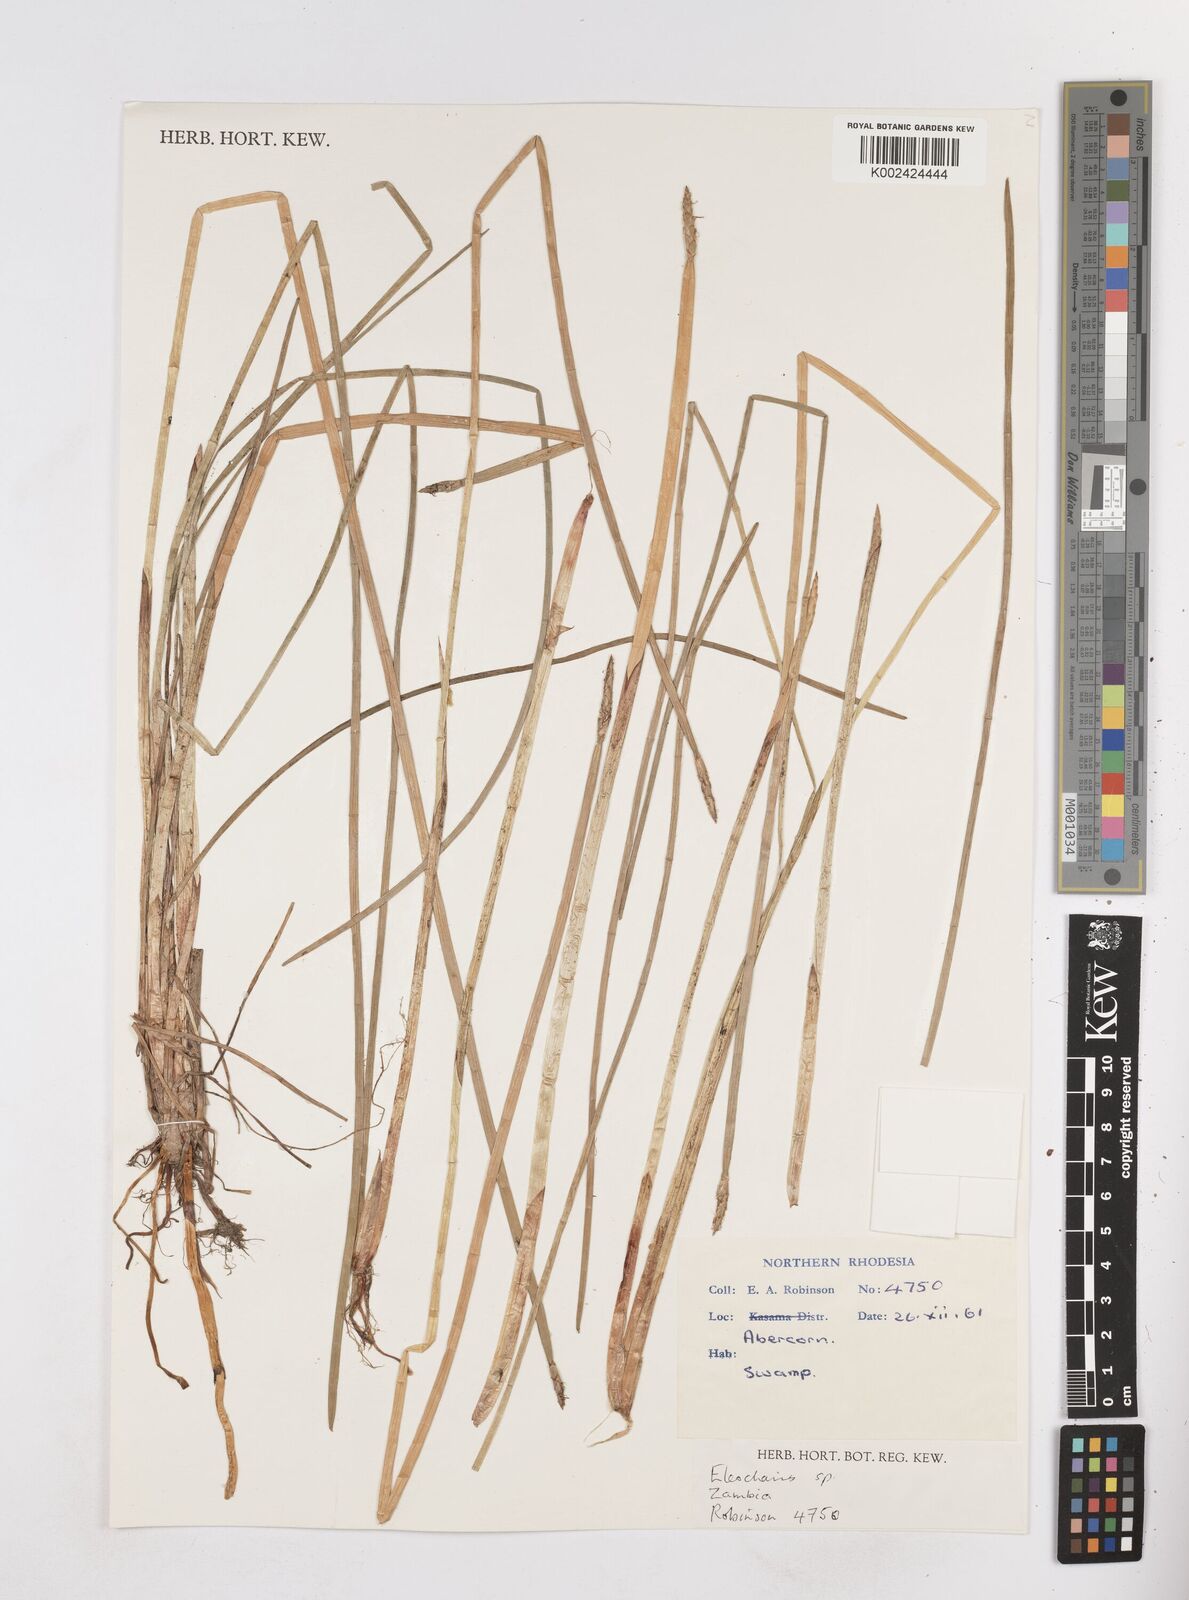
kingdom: Plantae
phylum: Tracheophyta
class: Liliopsida
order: Poales
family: Cyperaceae
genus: Eleocharis
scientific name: Eleocharis
